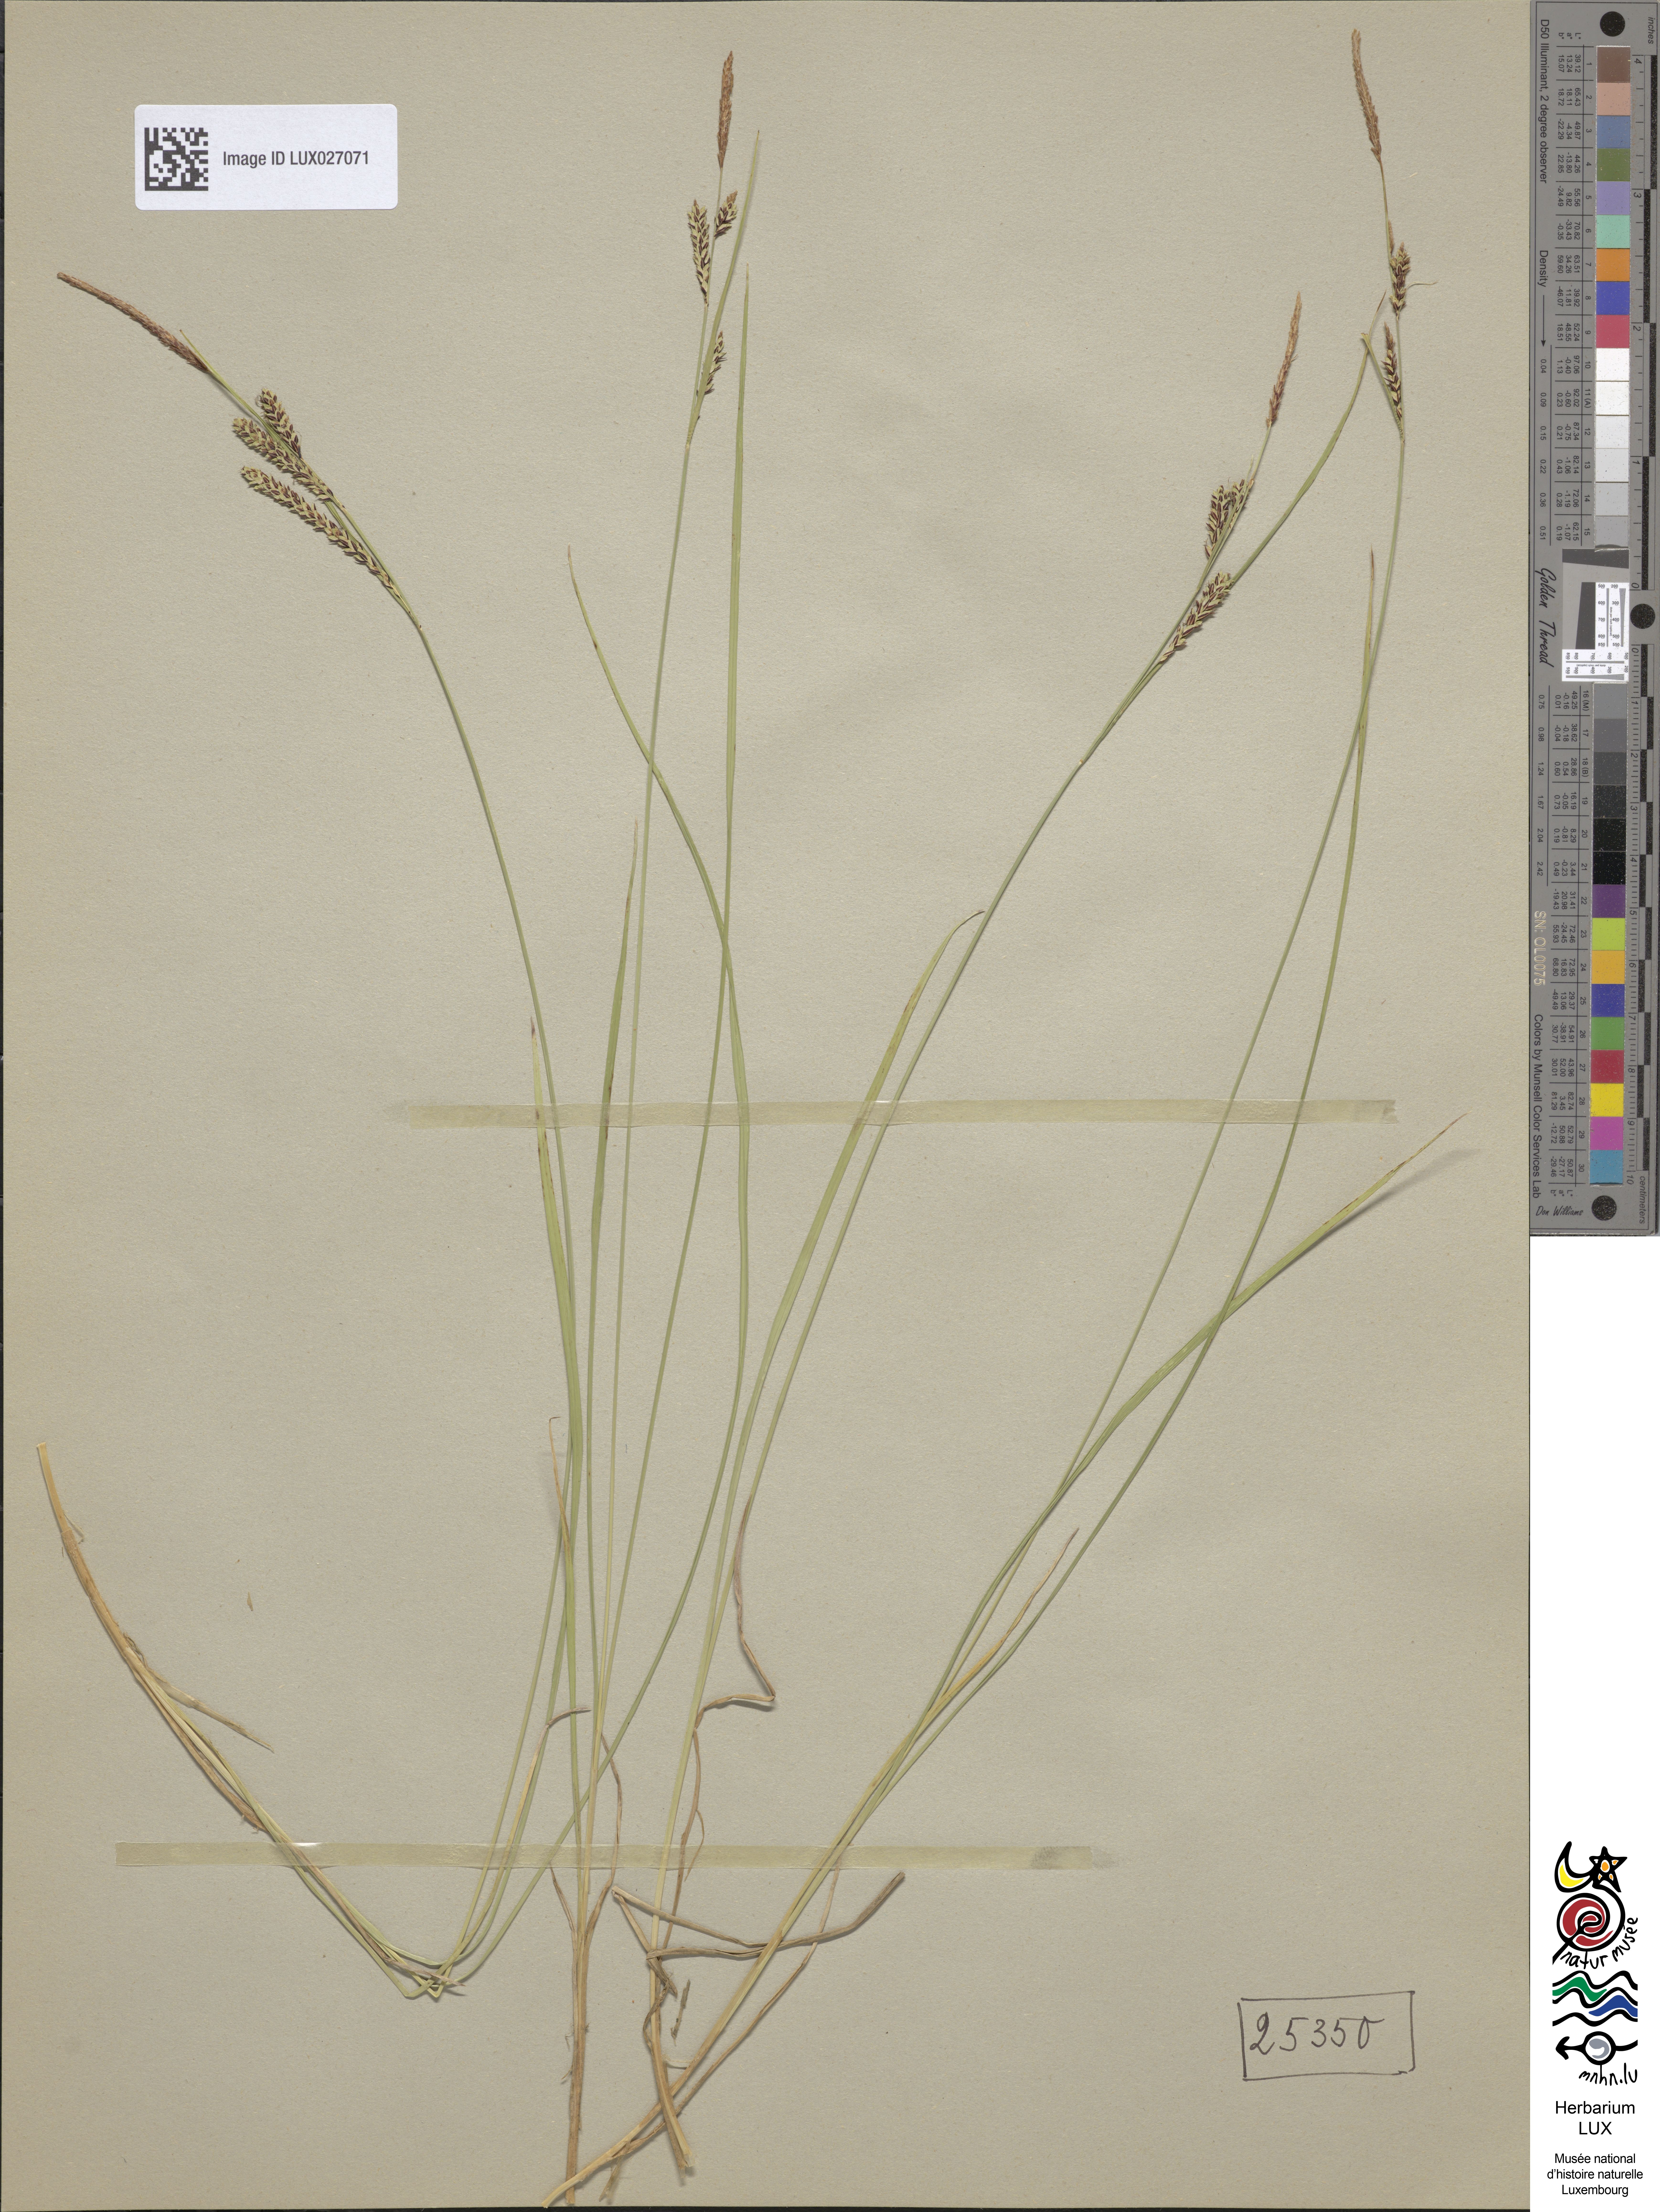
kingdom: Plantae
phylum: Tracheophyta
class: Liliopsida
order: Poales
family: Cyperaceae
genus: Carex
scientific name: Carex nigra
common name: Common sedge
